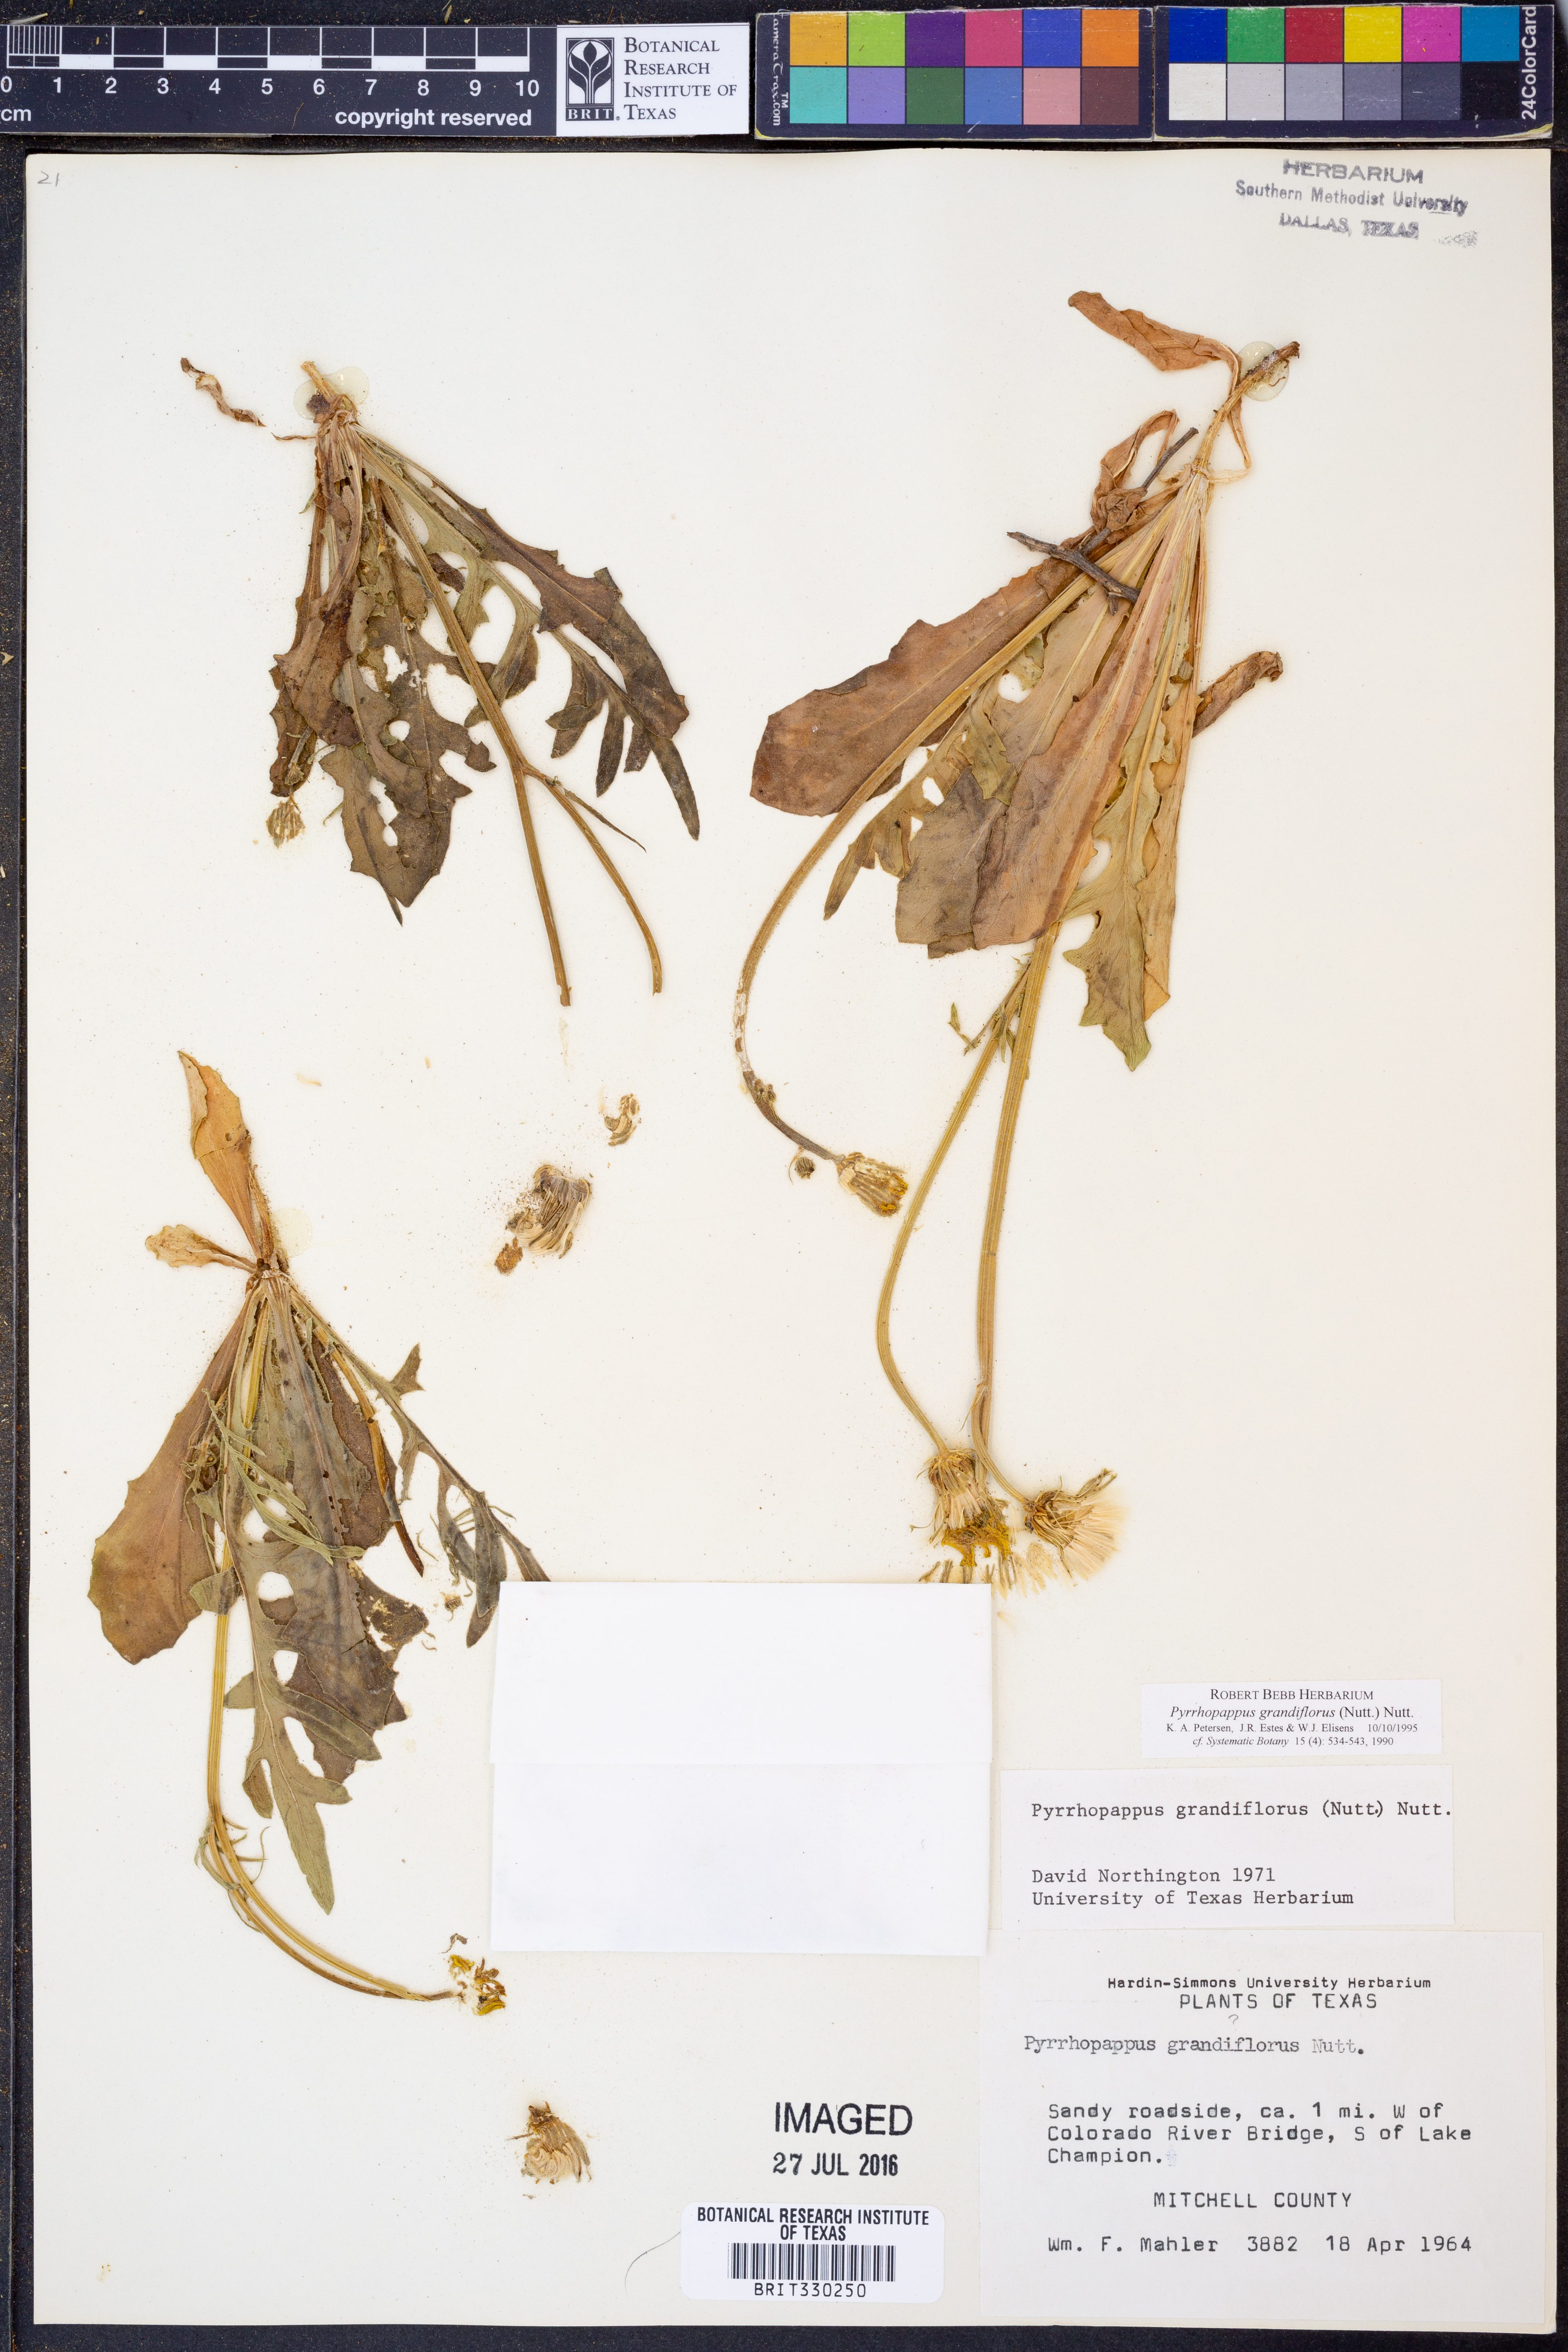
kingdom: Plantae
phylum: Tracheophyta
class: Magnoliopsida
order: Asterales
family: Asteraceae
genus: Pyrrhopappus
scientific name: Pyrrhopappus grandiflorus
